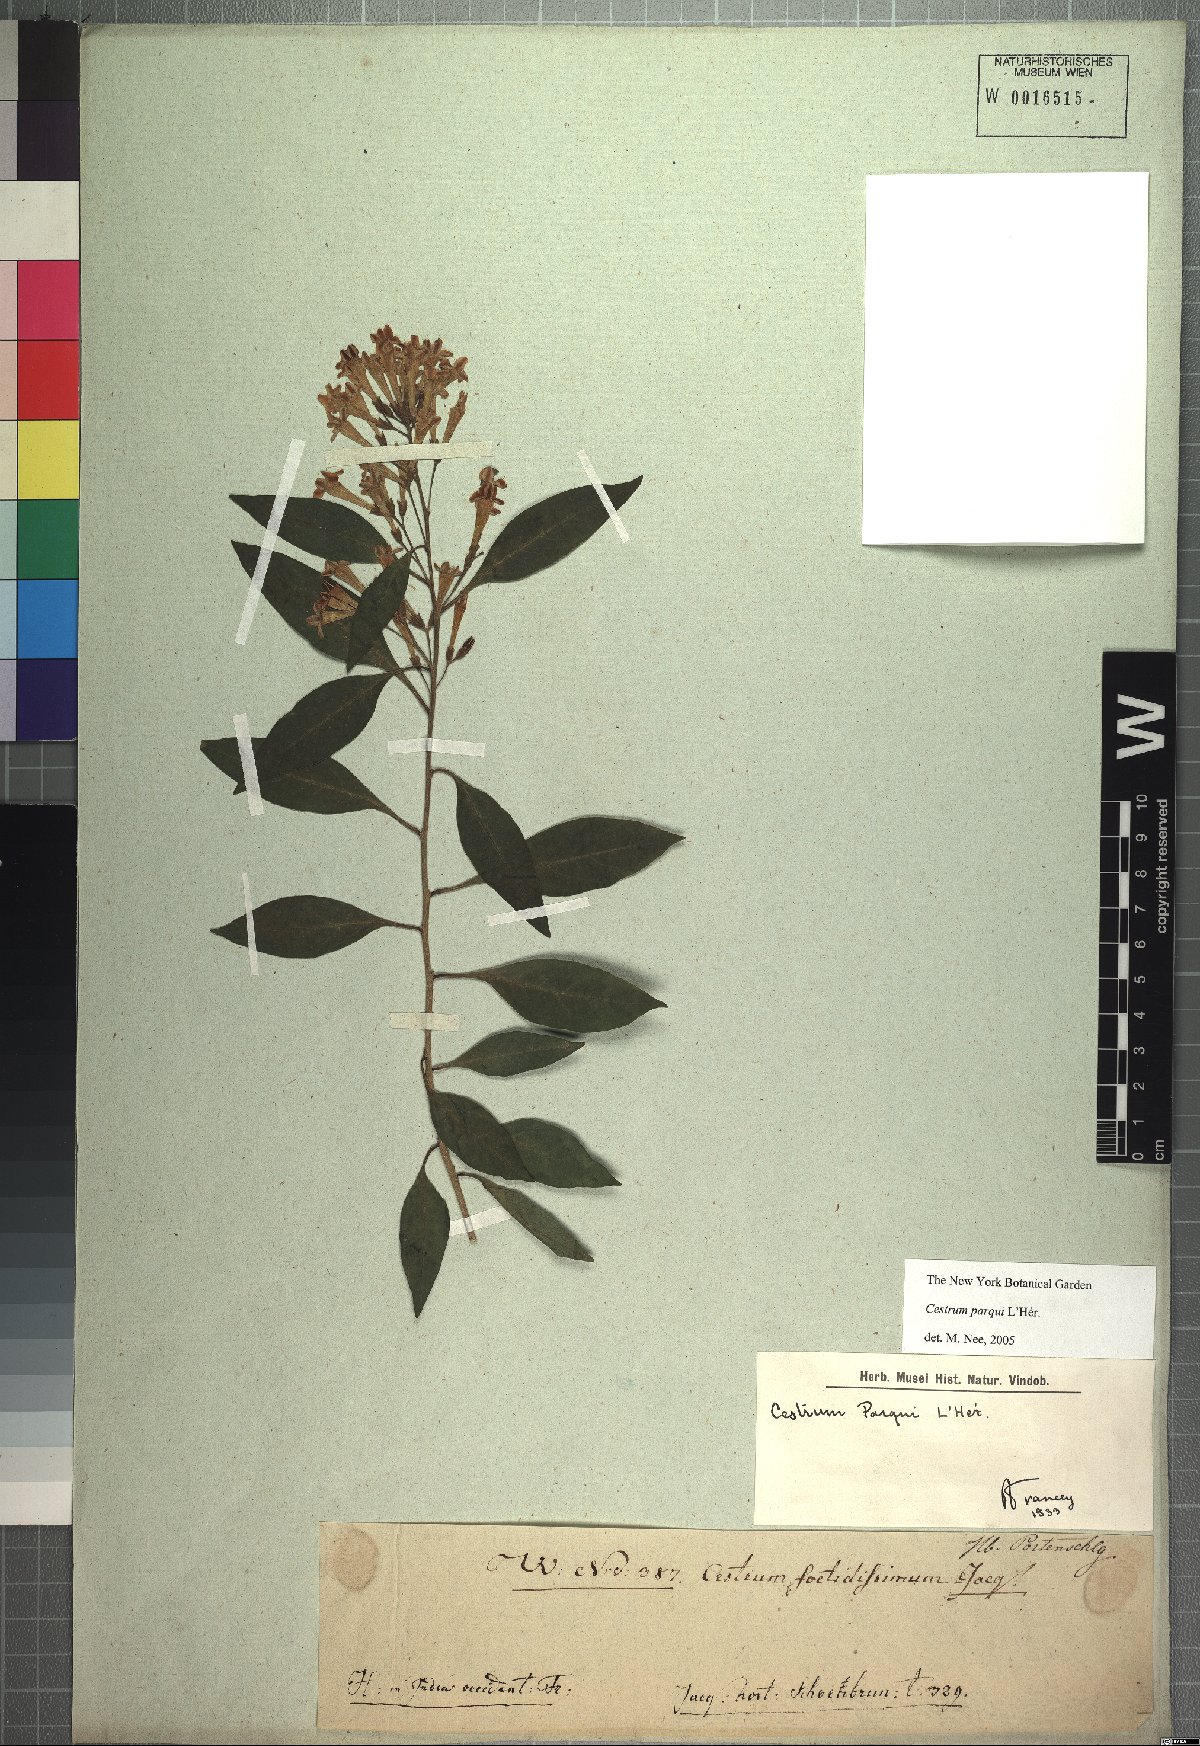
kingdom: Plantae
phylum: Tracheophyta
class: Magnoliopsida
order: Solanales
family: Solanaceae
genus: Cestrum
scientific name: Cestrum thyrsoideum
